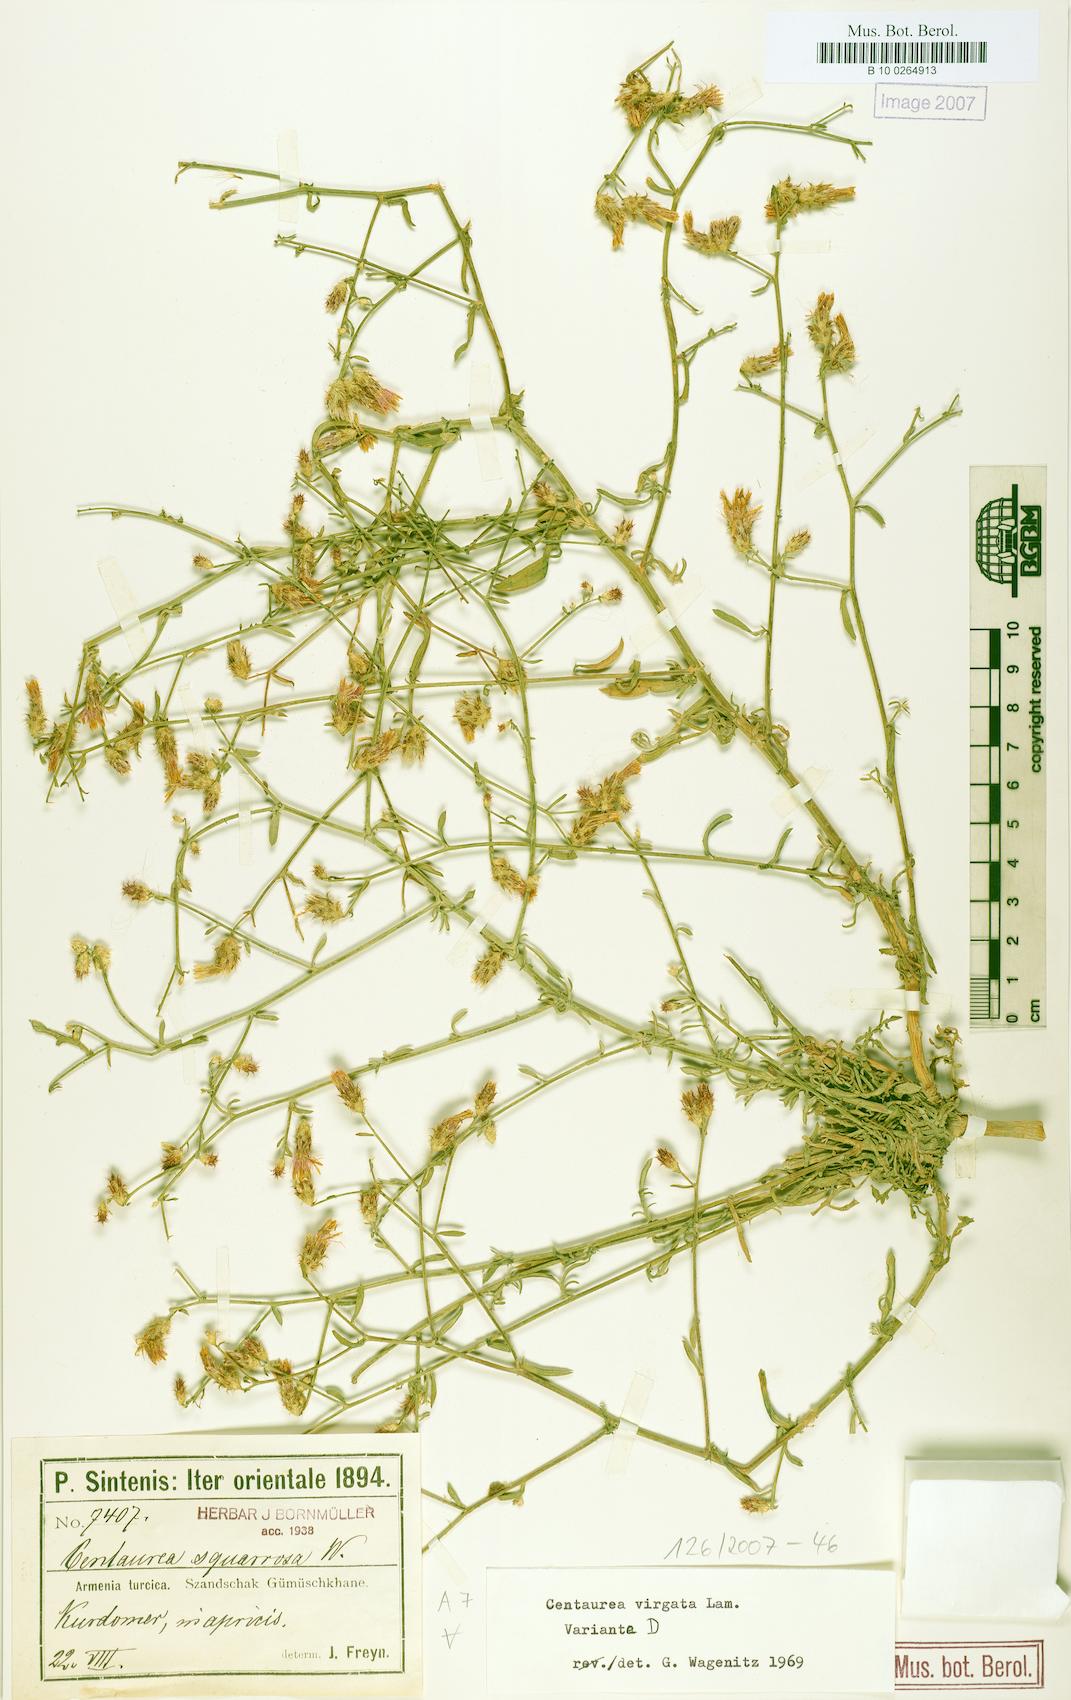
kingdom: Plantae
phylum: Tracheophyta
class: Magnoliopsida
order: Asterales
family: Asteraceae
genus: Centaurea
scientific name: Centaurea virgata
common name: Squarrose knapweed
